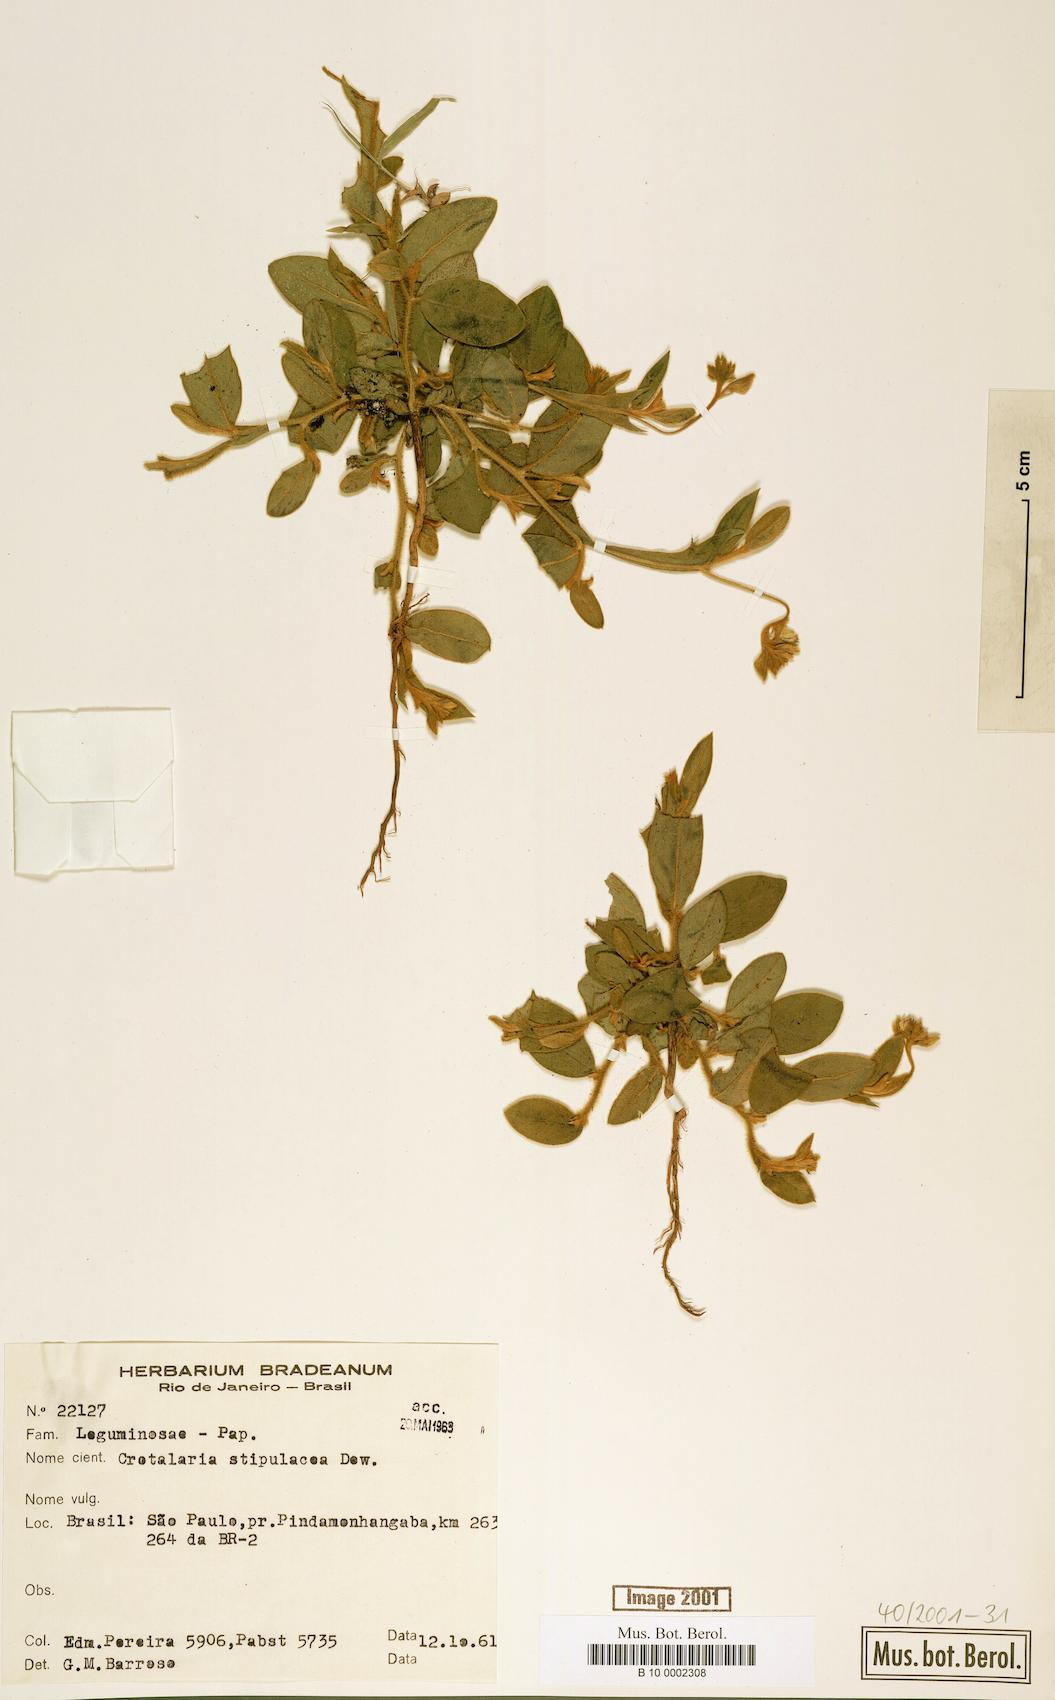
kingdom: Plantae
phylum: Tracheophyta
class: Magnoliopsida
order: Fabales
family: Fabaceae
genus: Crotalaria
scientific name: Crotalaria mysorensis
